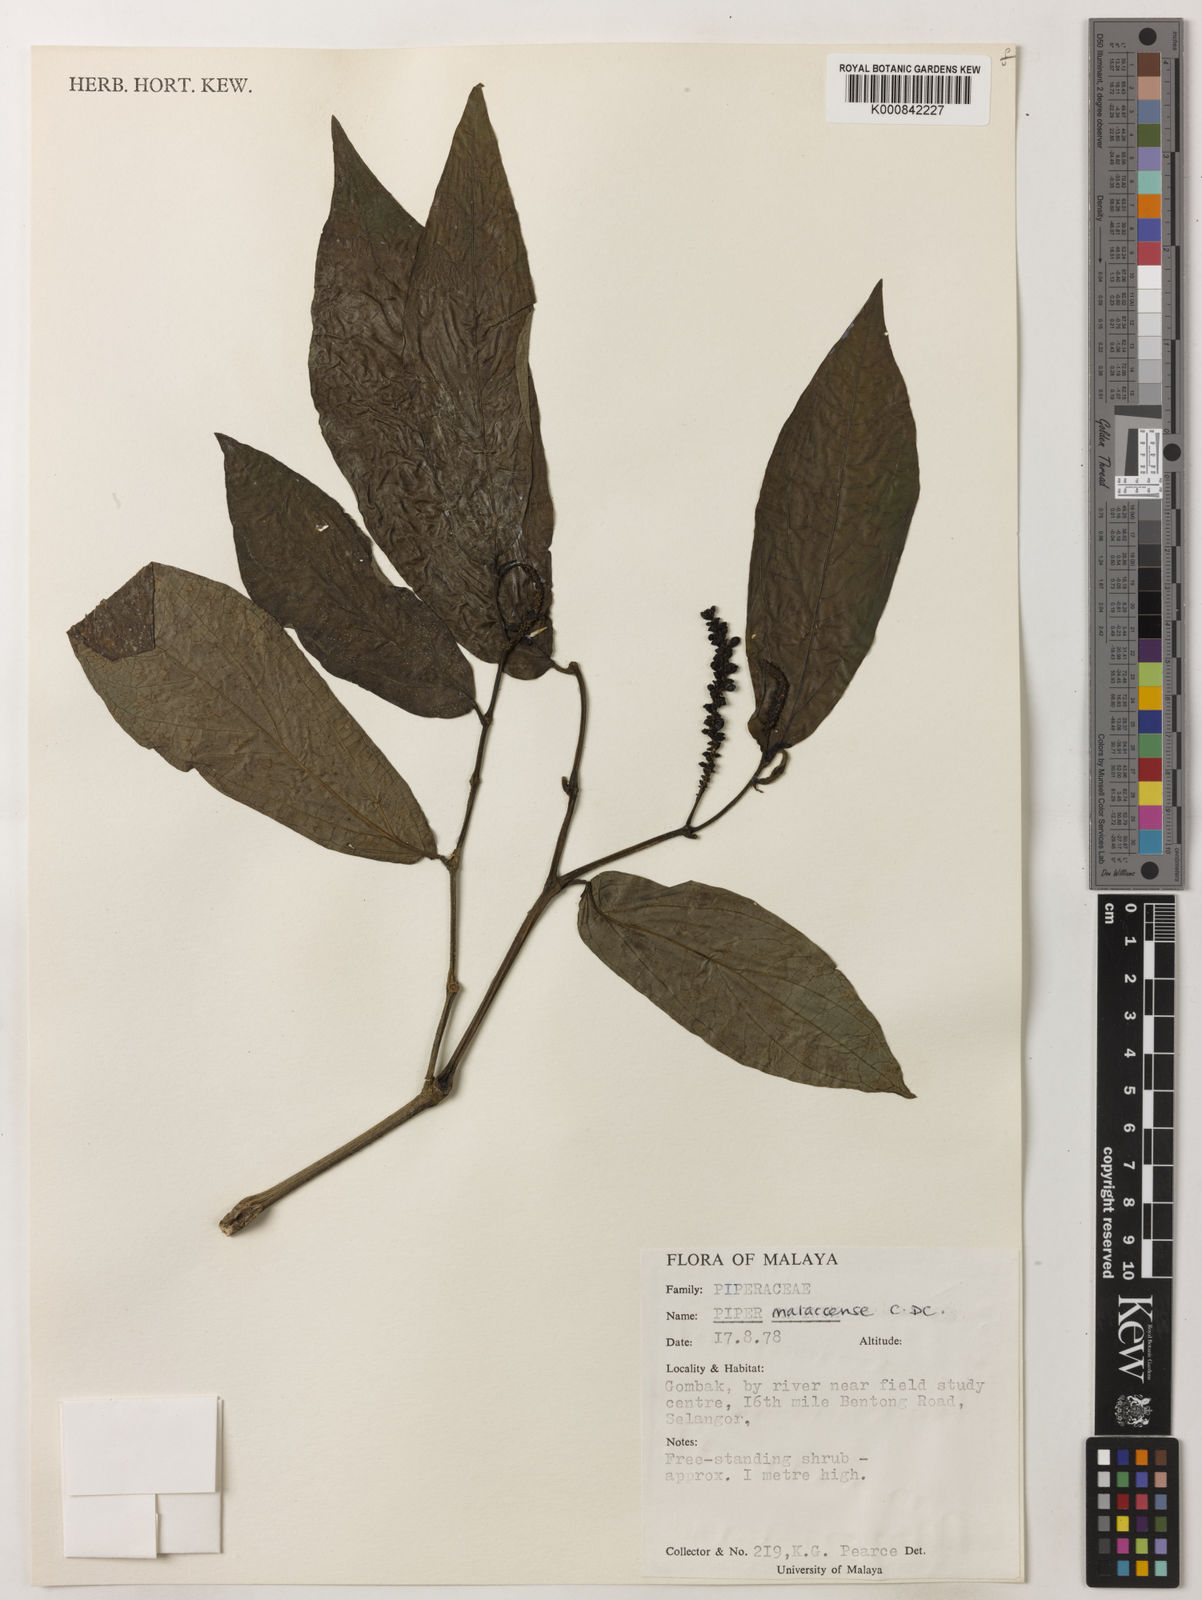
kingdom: Plantae
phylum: Tracheophyta
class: Magnoliopsida
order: Piperales
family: Piperaceae
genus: Piper
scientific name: Piper ridleyi
